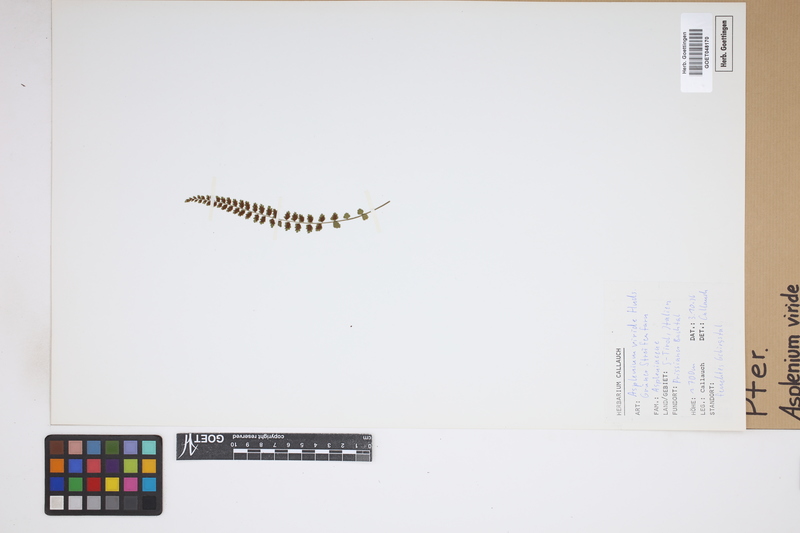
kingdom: Plantae
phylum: Tracheophyta
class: Polypodiopsida
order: Polypodiales
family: Aspleniaceae
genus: Asplenium
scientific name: Asplenium viride
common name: Green spleenwort
